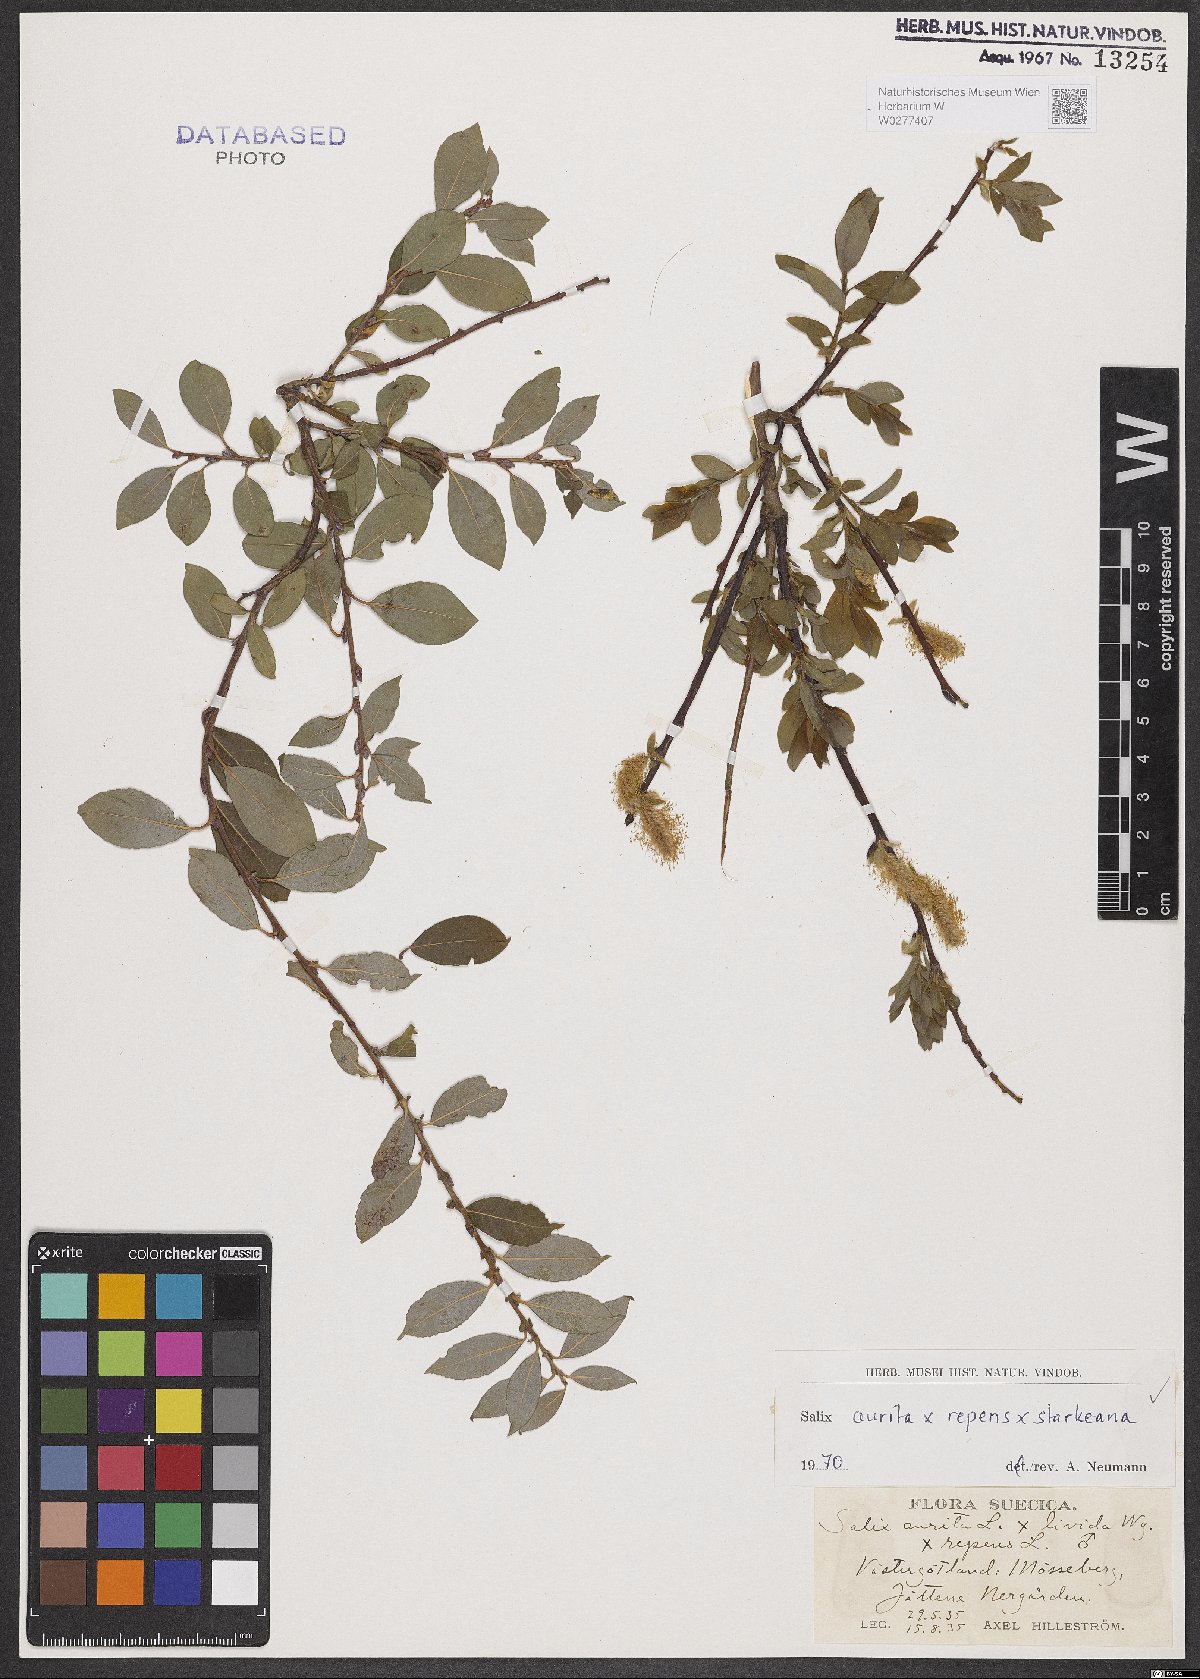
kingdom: Plantae
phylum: Tracheophyta
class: Magnoliopsida
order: Malpighiales
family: Salicaceae
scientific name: Salicaceae
